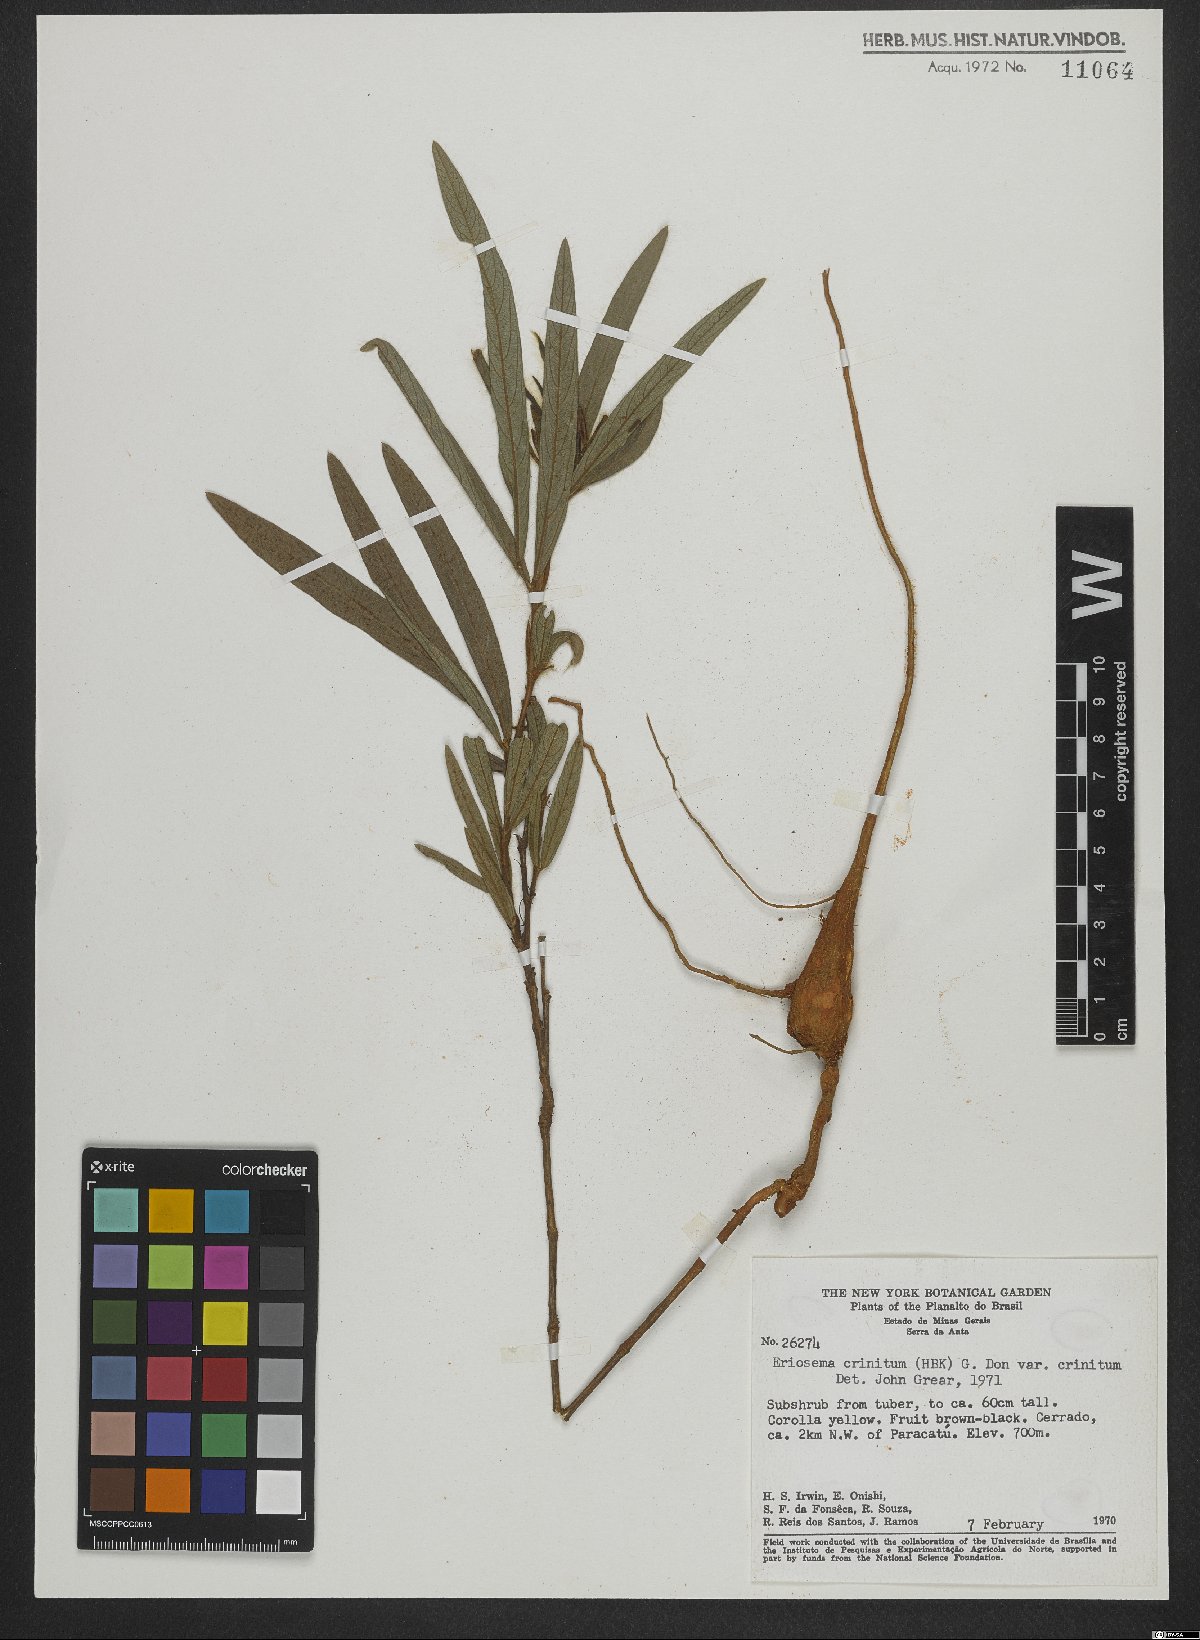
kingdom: Plantae
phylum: Tracheophyta
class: Magnoliopsida
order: Fabales
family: Fabaceae
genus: Eriosema
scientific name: Eriosema crinitum
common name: Sand pea
